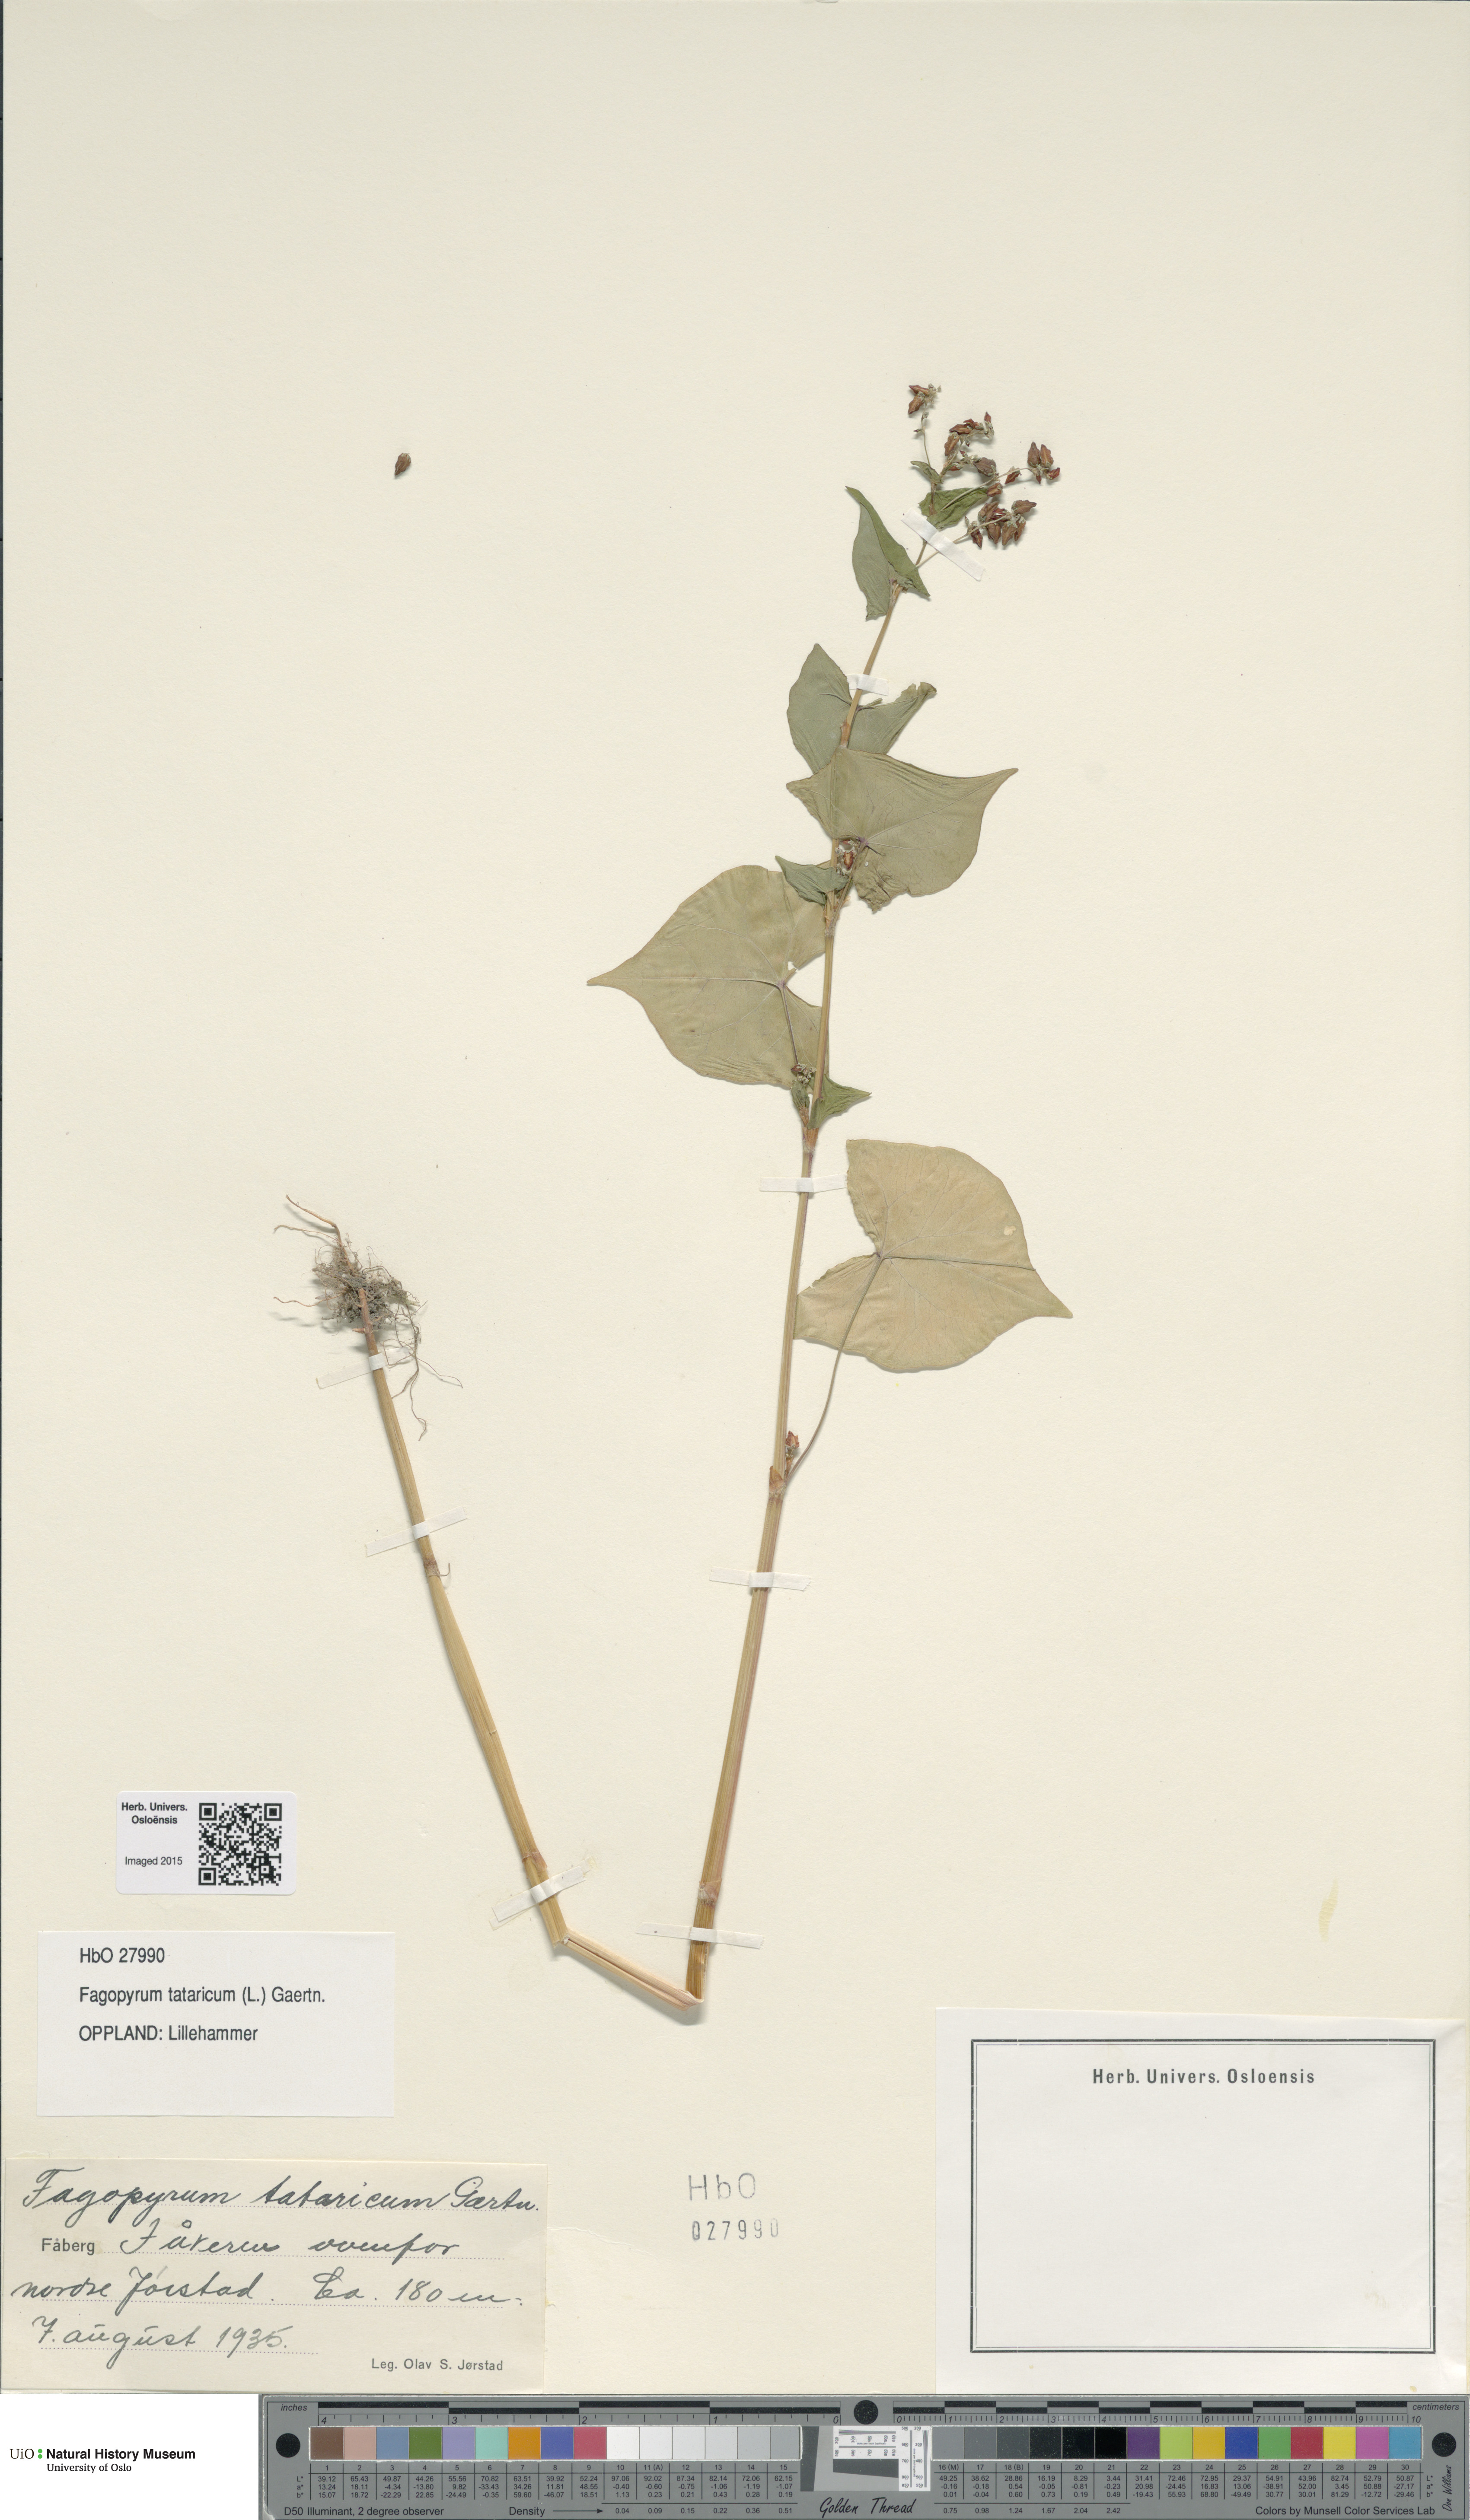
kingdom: Plantae
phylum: Tracheophyta
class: Magnoliopsida
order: Caryophyllales
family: Polygonaceae
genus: Fagopyrum
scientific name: Fagopyrum tataricum
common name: Green buckwheat
